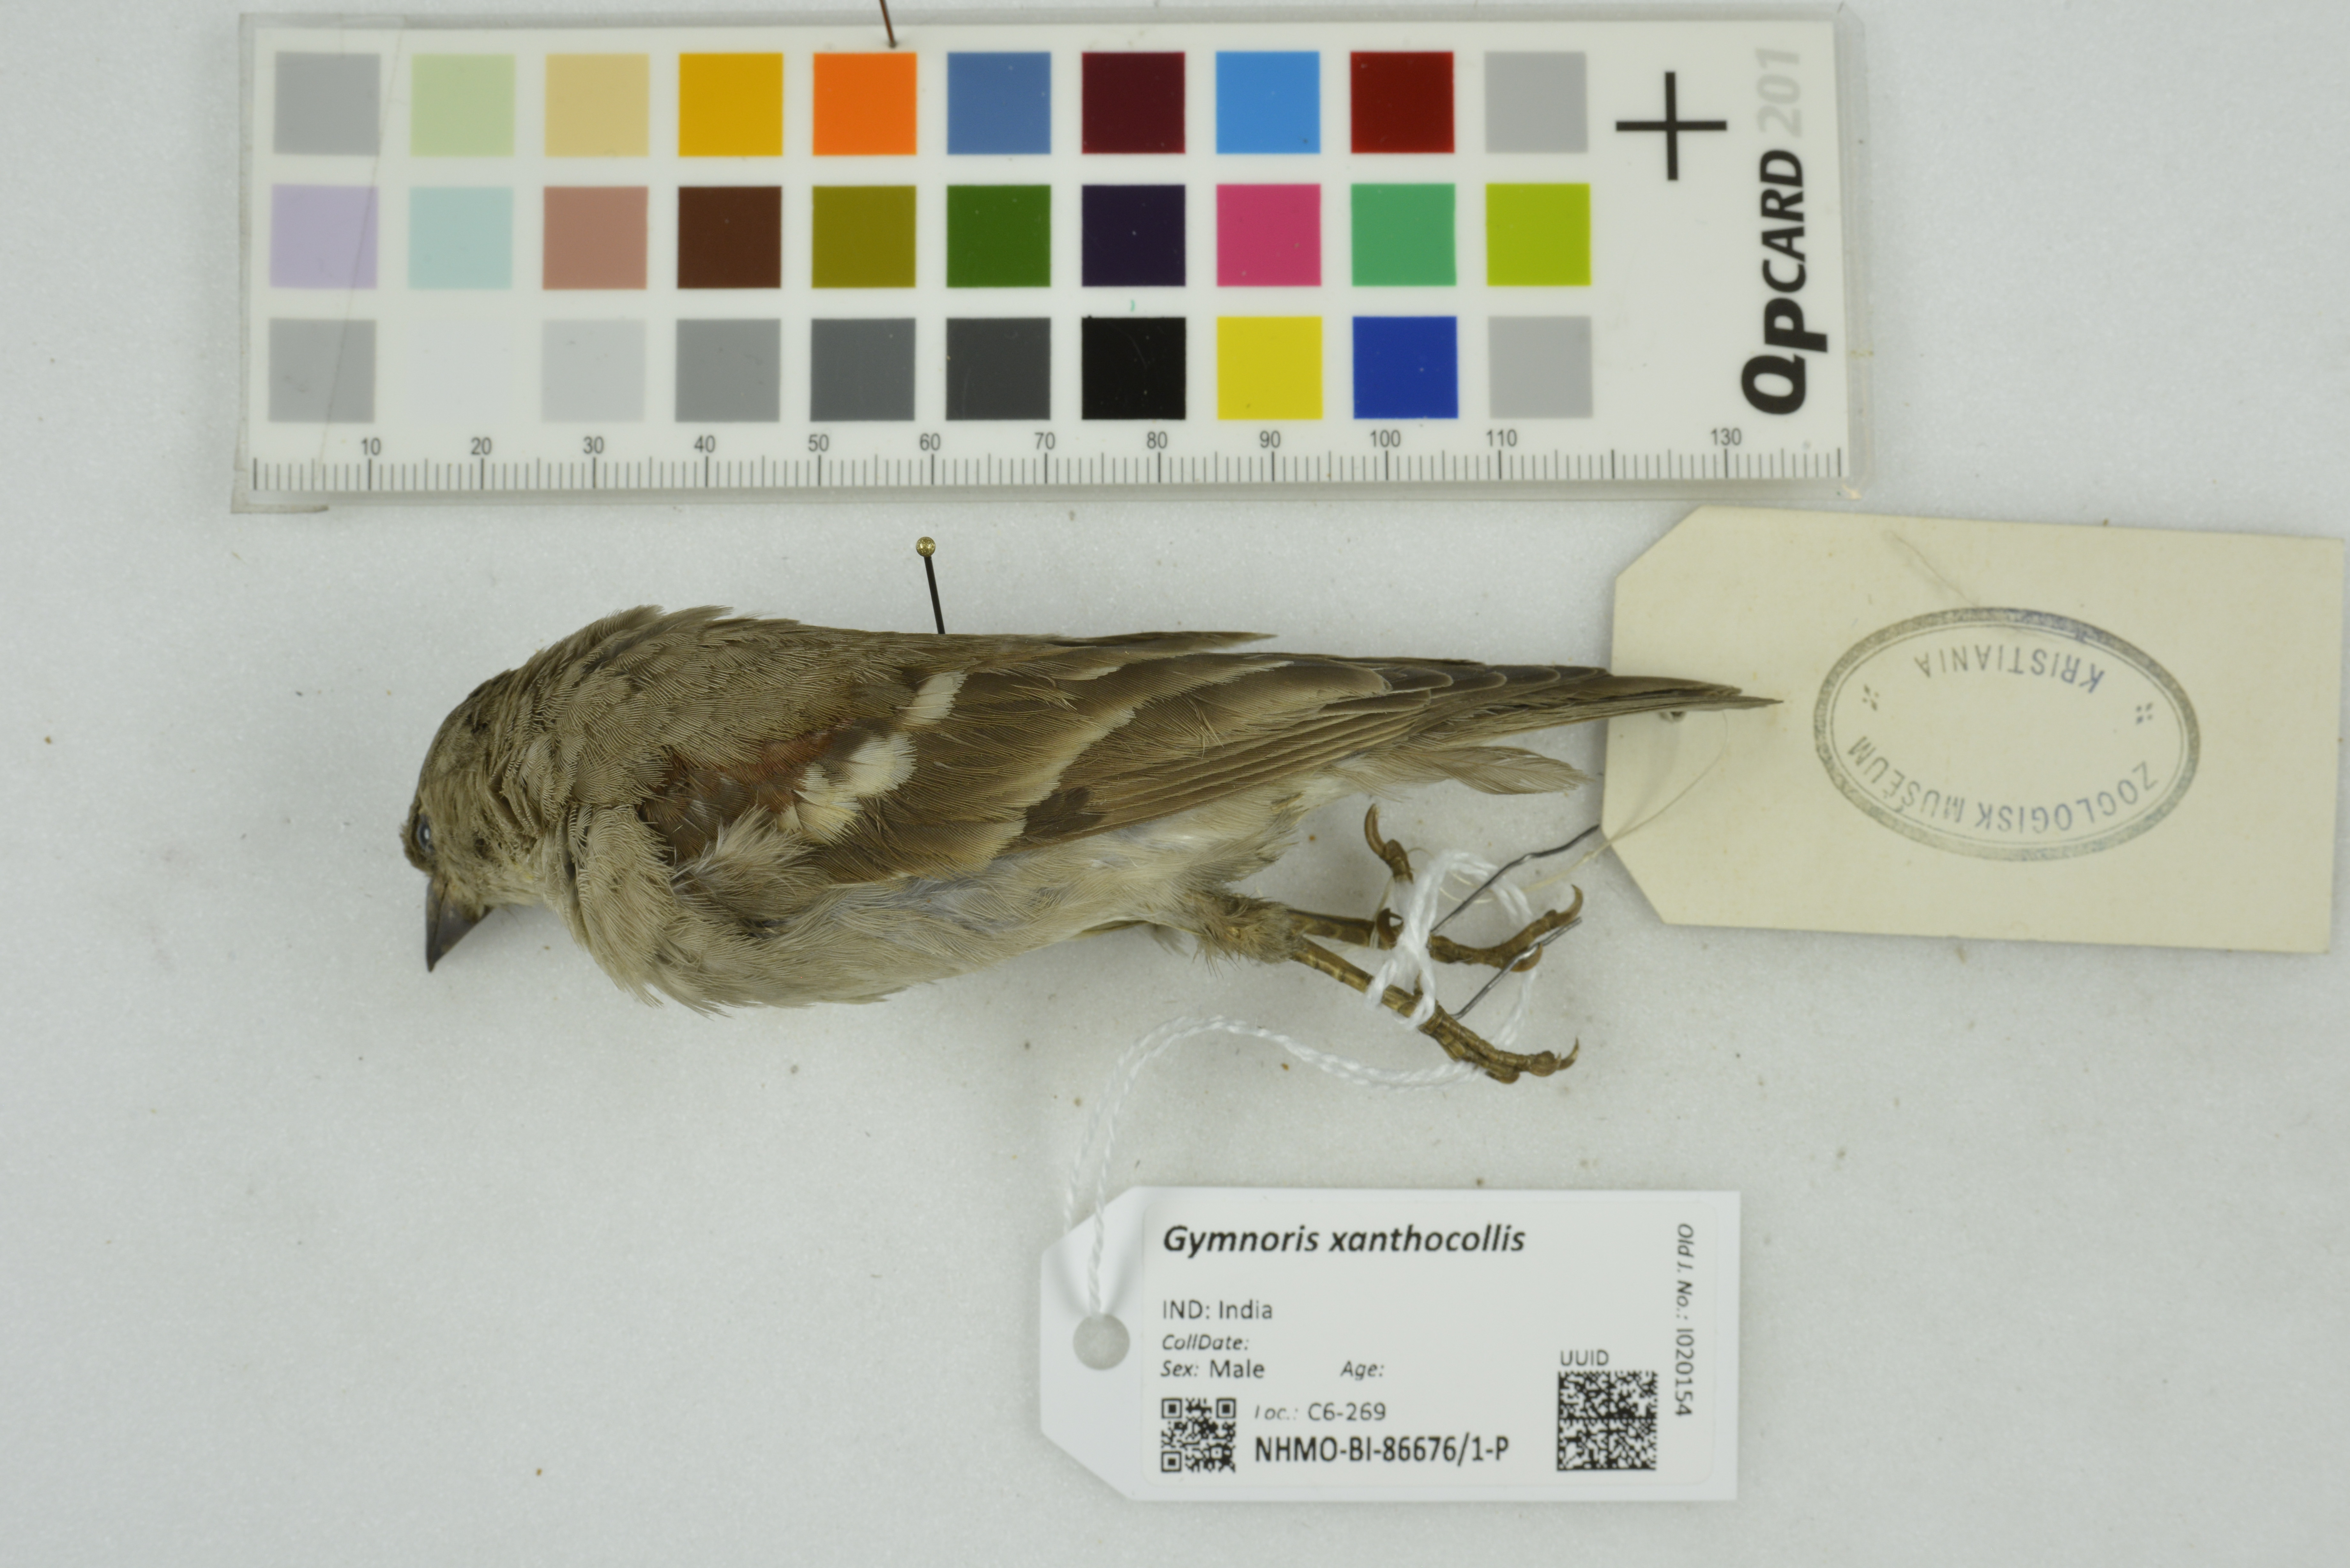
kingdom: Animalia
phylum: Chordata
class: Aves
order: Passeriformes
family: Passeridae
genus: Gymnoris
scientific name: Gymnoris xanthocollis
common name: Yellow-throated sparrow
